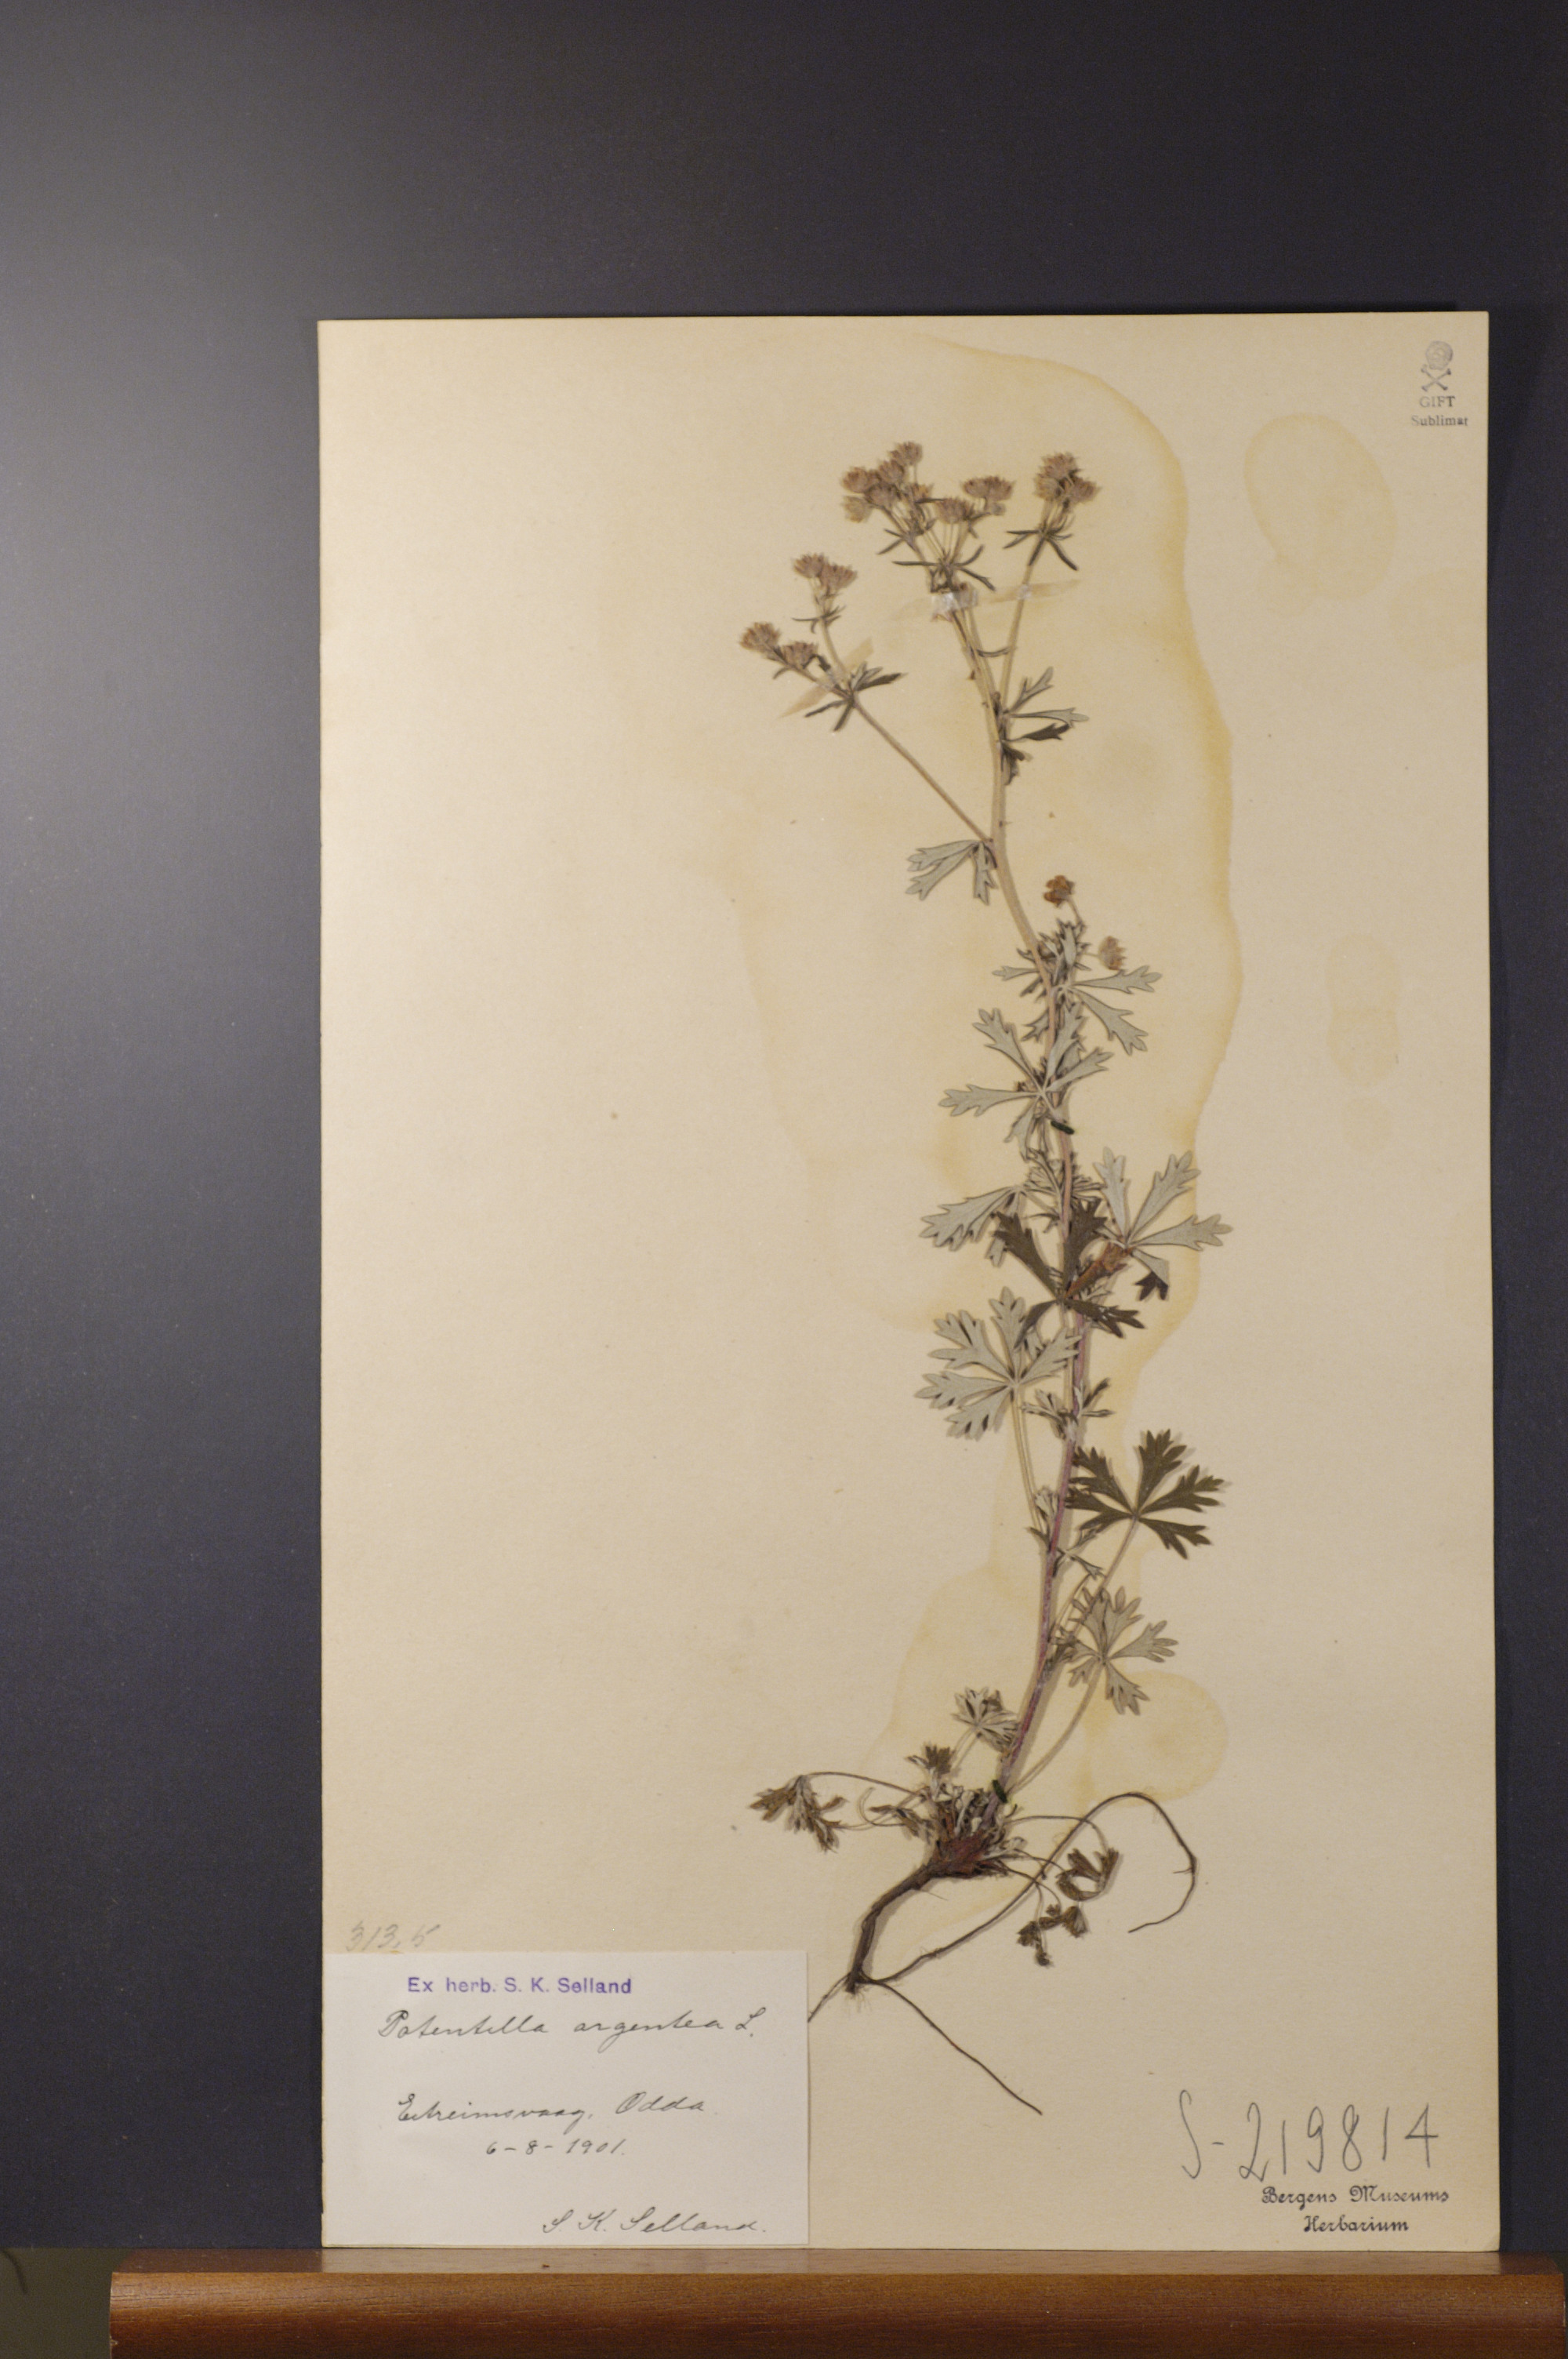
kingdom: Plantae
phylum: Tracheophyta
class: Magnoliopsida
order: Rosales
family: Rosaceae
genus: Potentilla
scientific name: Potentilla argentea
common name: Hoary cinquefoil
